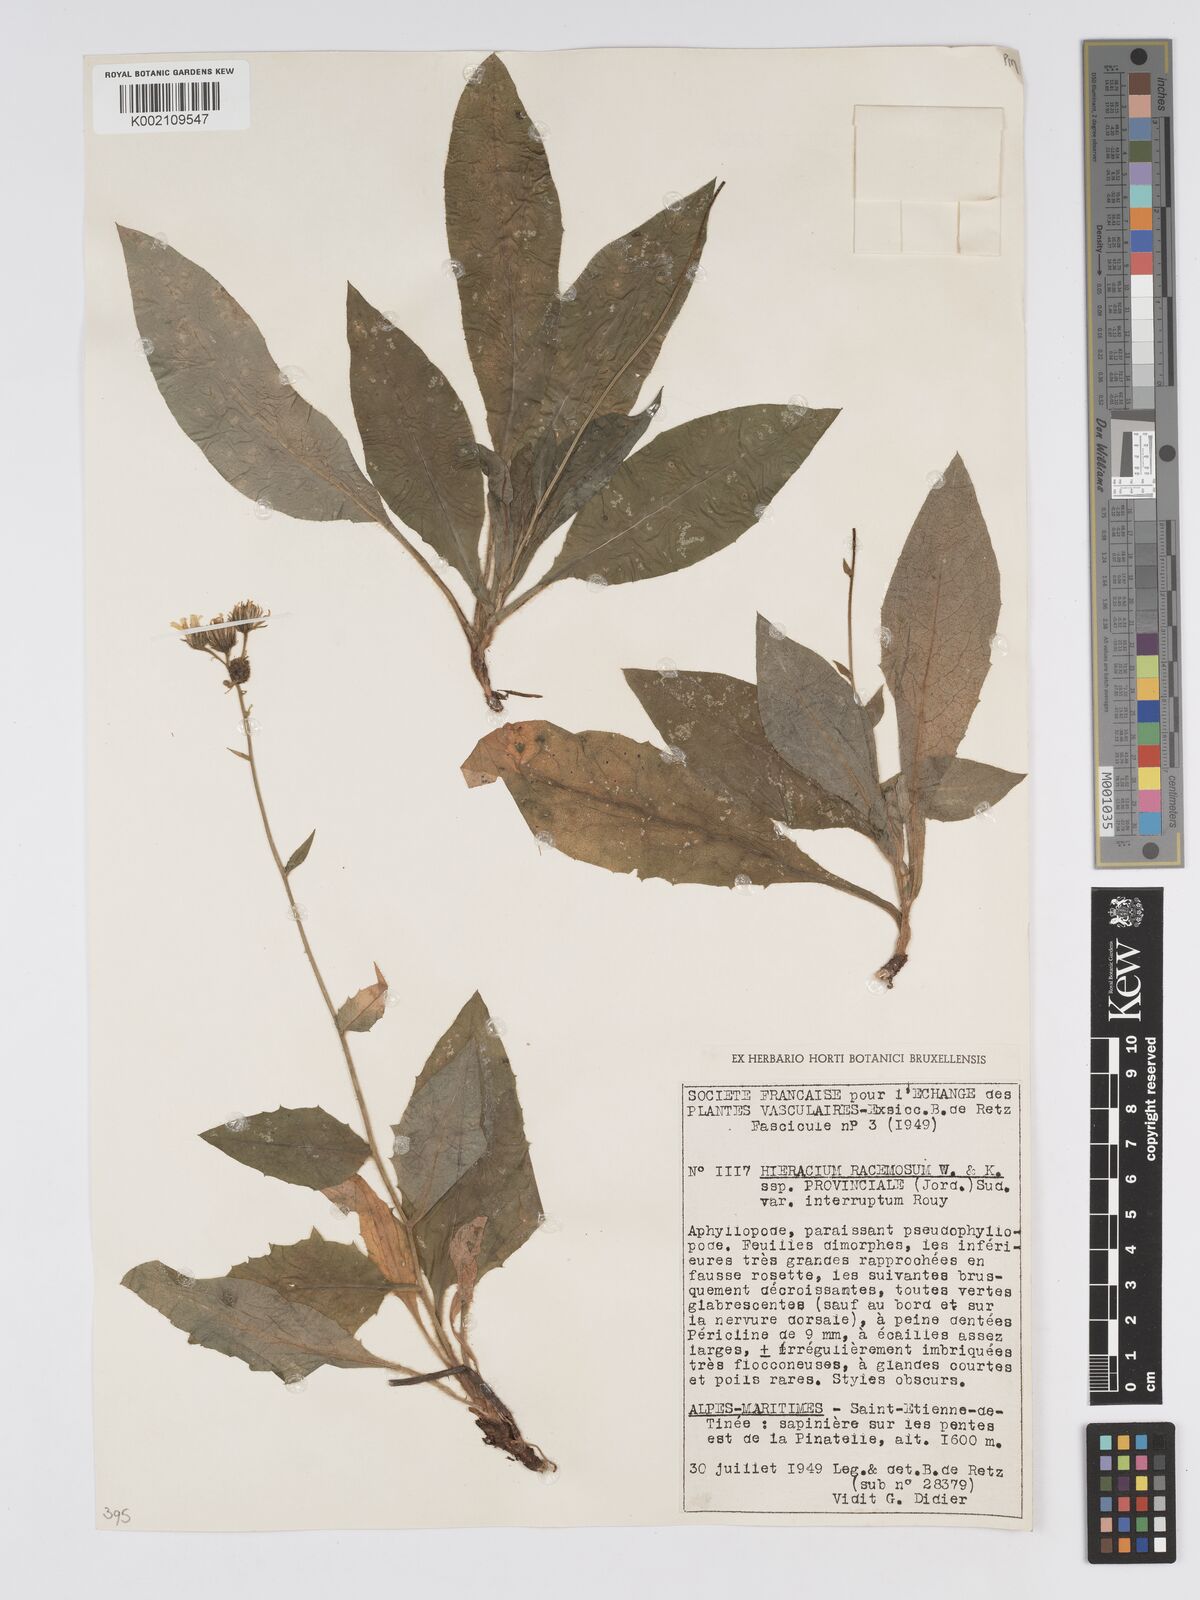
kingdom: Plantae
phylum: Tracheophyta
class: Magnoliopsida
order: Asterales
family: Asteraceae
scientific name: Asteraceae
